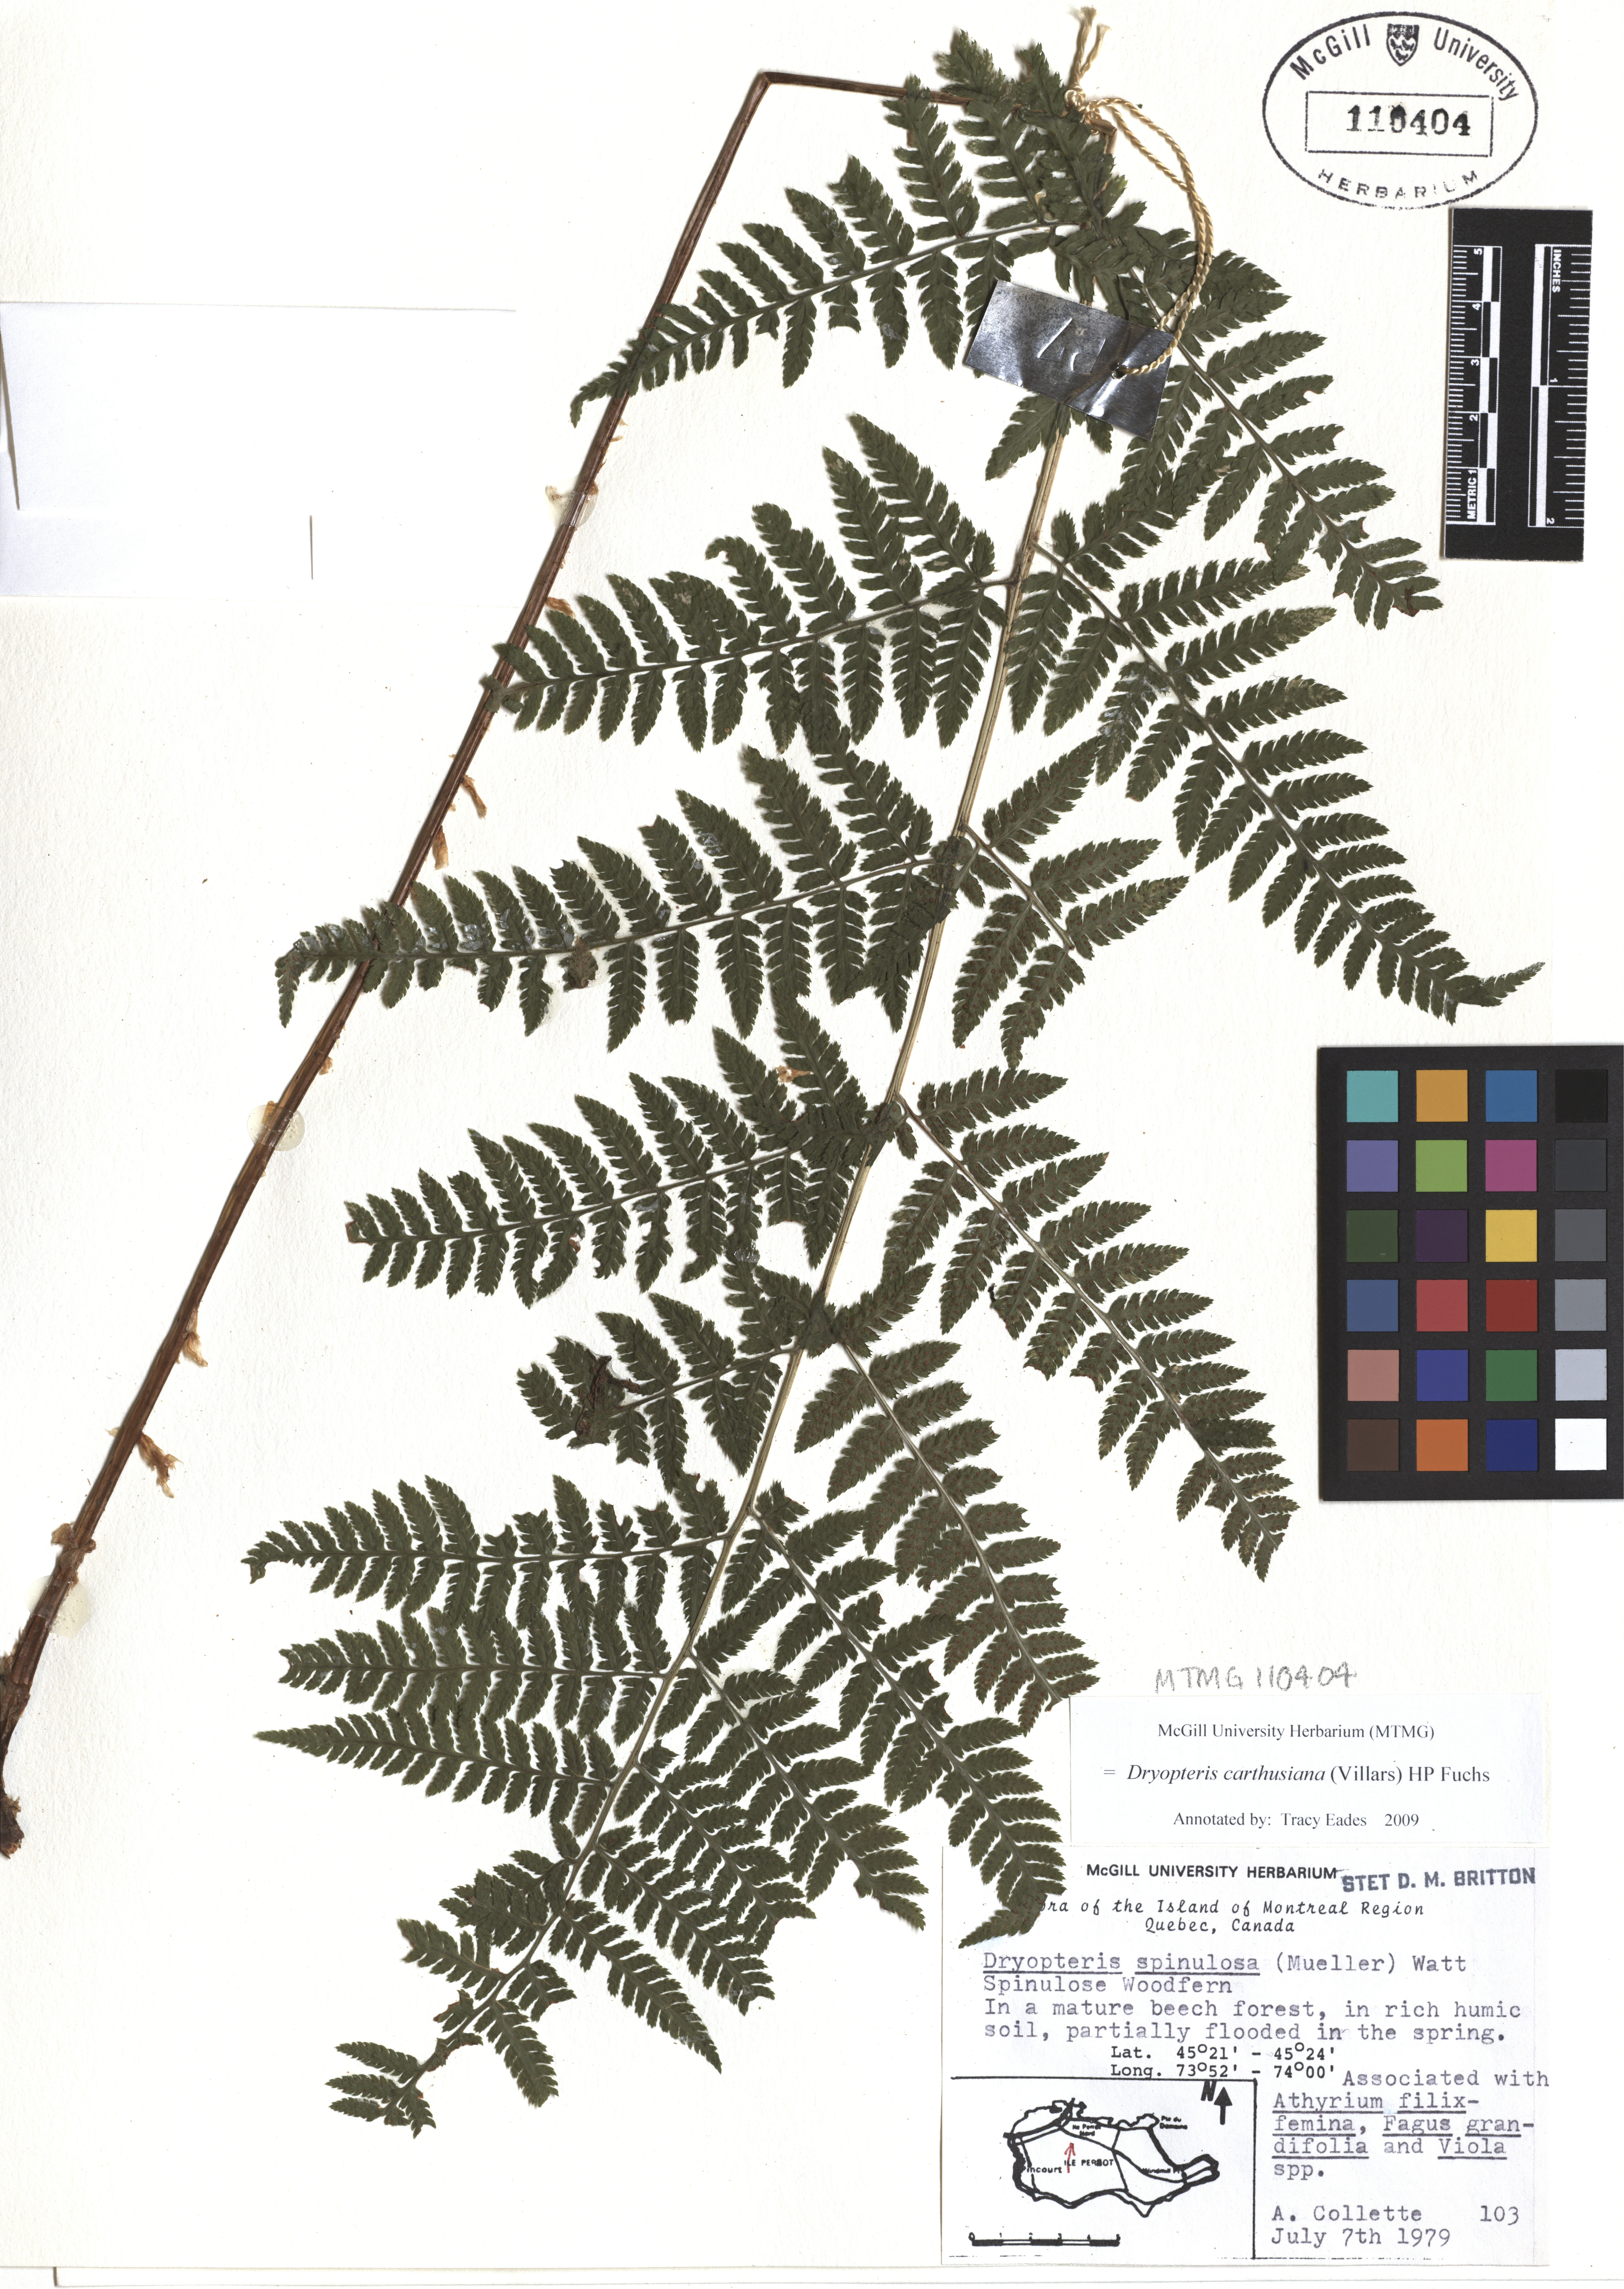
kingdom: Plantae
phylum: Tracheophyta
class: Polypodiopsida
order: Polypodiales
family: Dryopteridaceae
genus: Dryopteris
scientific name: Dryopteris carthusiana
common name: Narrow buckler-fern
